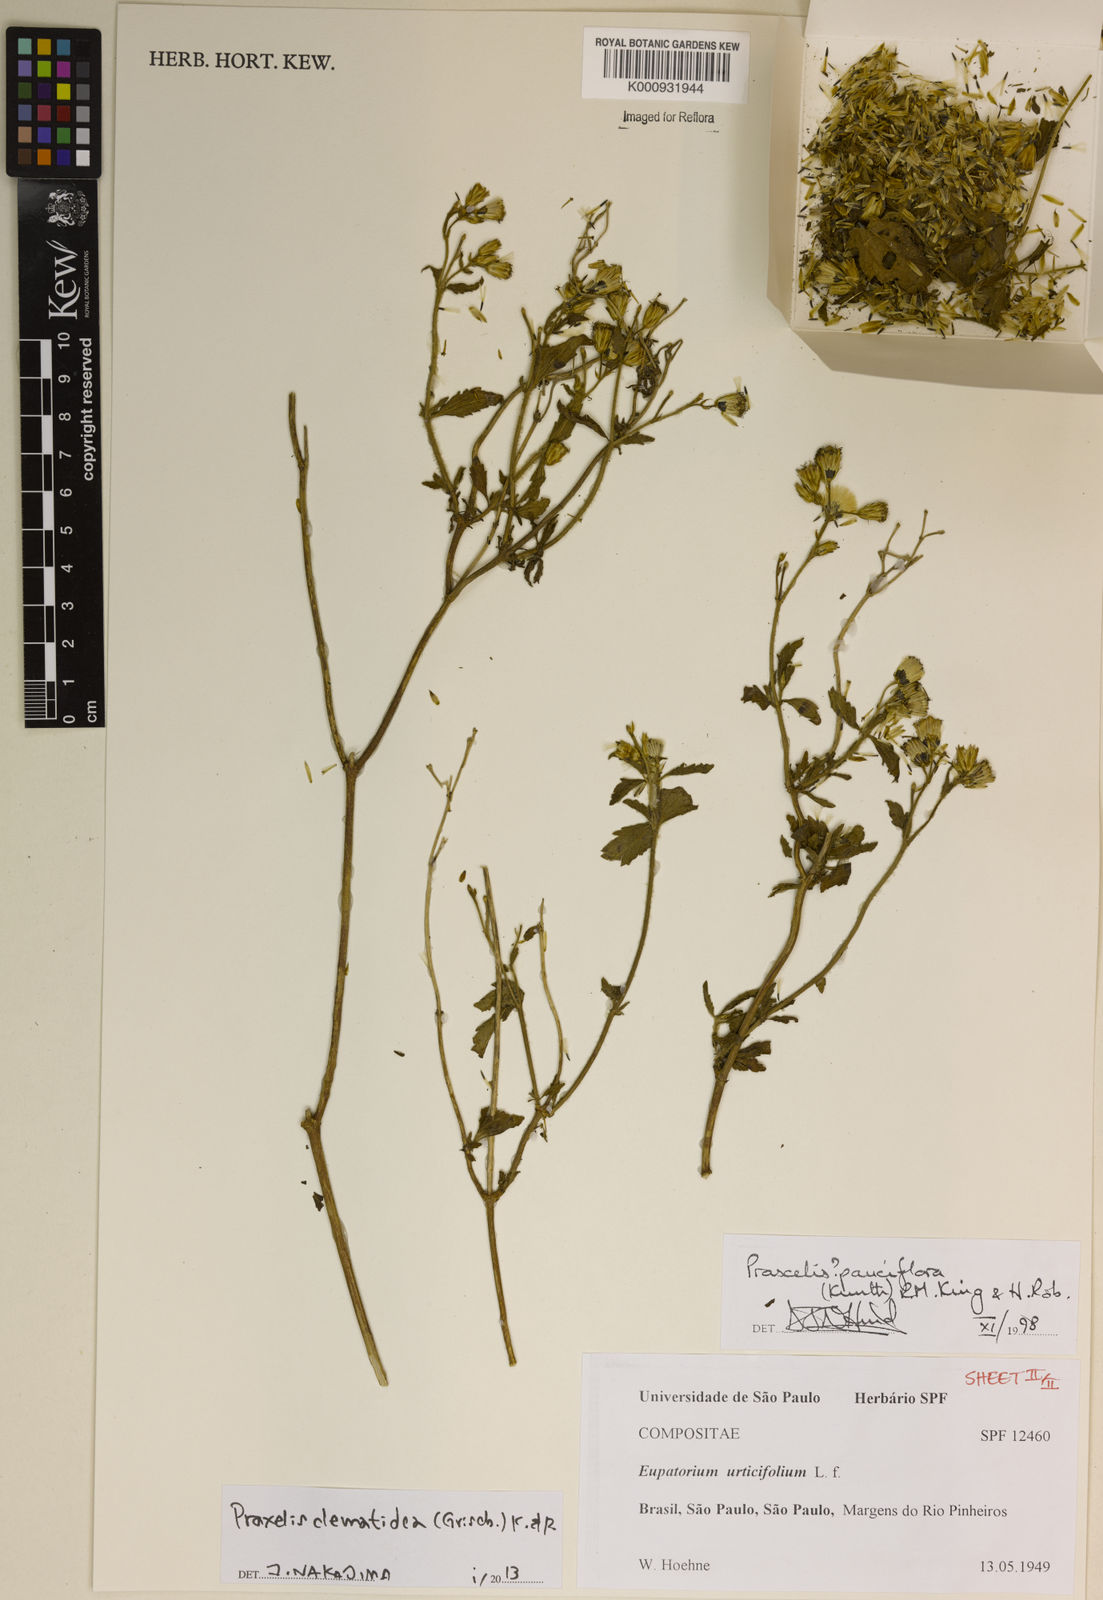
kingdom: Plantae
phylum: Tracheophyta
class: Magnoliopsida
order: Asterales
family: Asteraceae
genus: Praxelis
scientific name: Praxelis clematidea
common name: Praxelis
